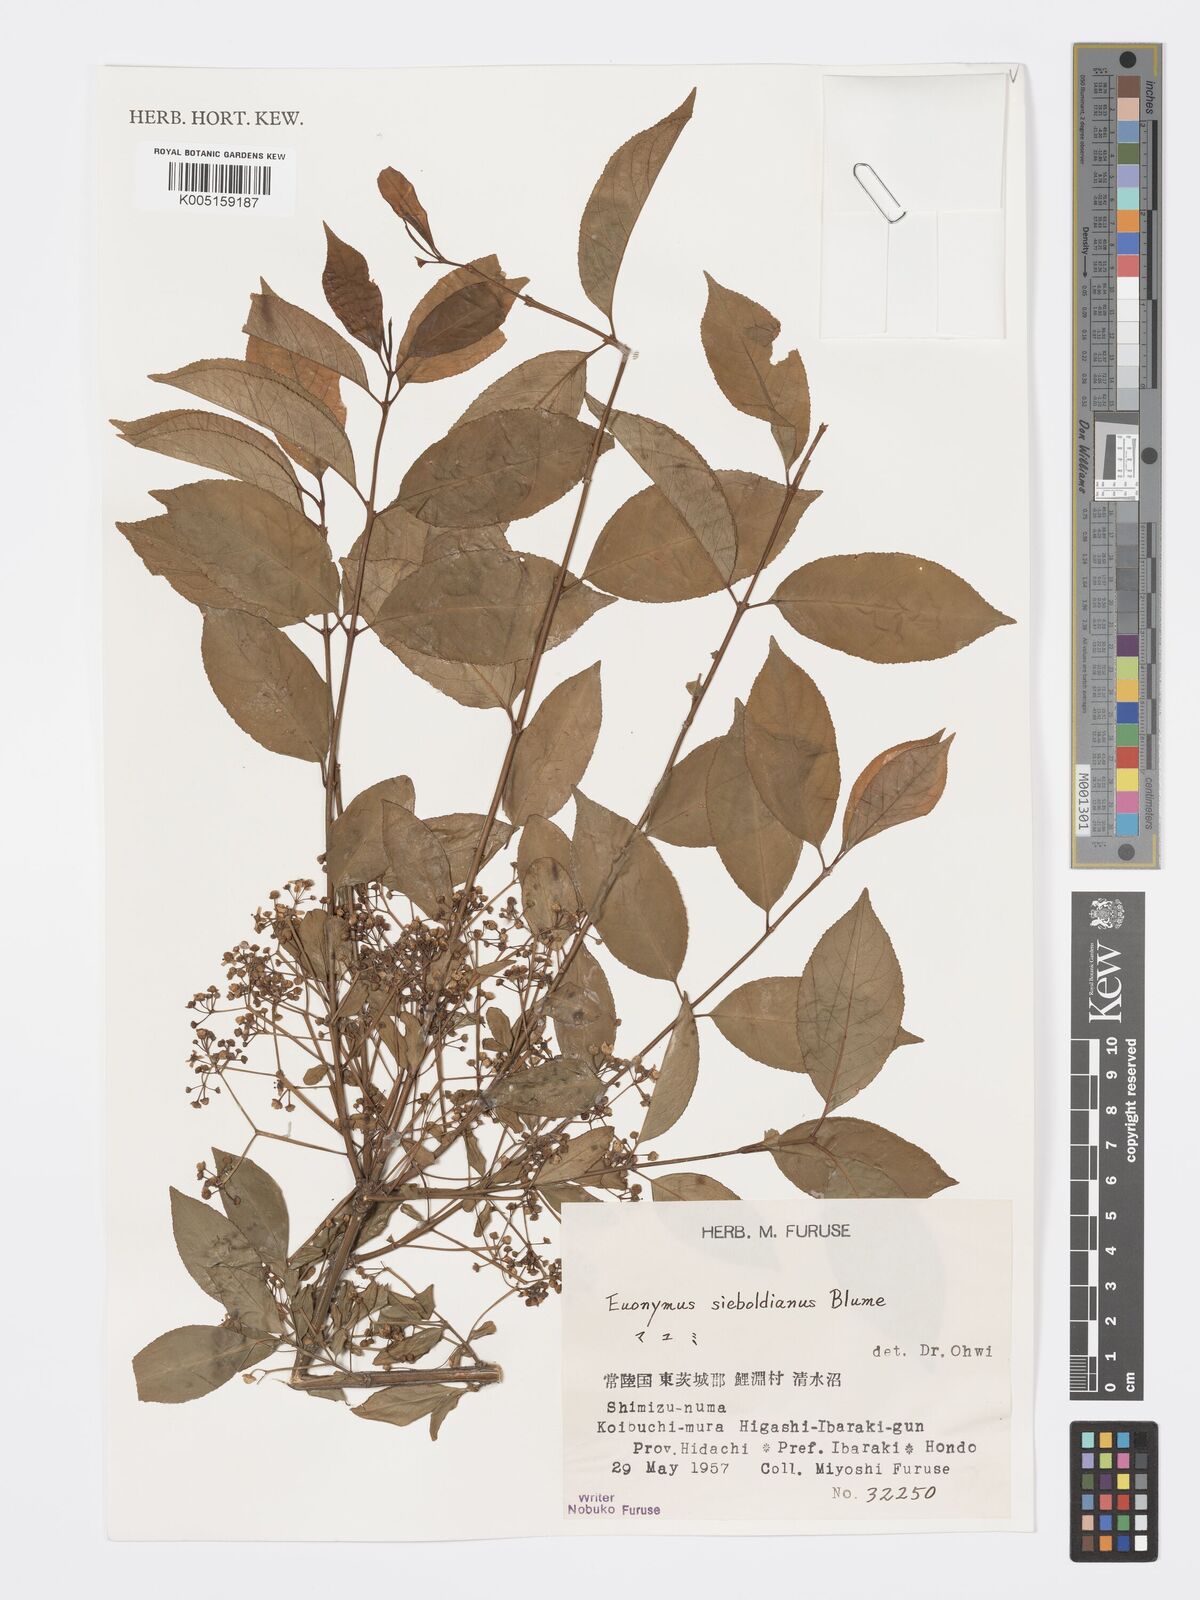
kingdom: Plantae
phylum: Tracheophyta
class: Magnoliopsida
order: Celastrales
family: Celastraceae
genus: Euonymus
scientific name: Euonymus hamiltonianus
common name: Hamilton's spindletree
